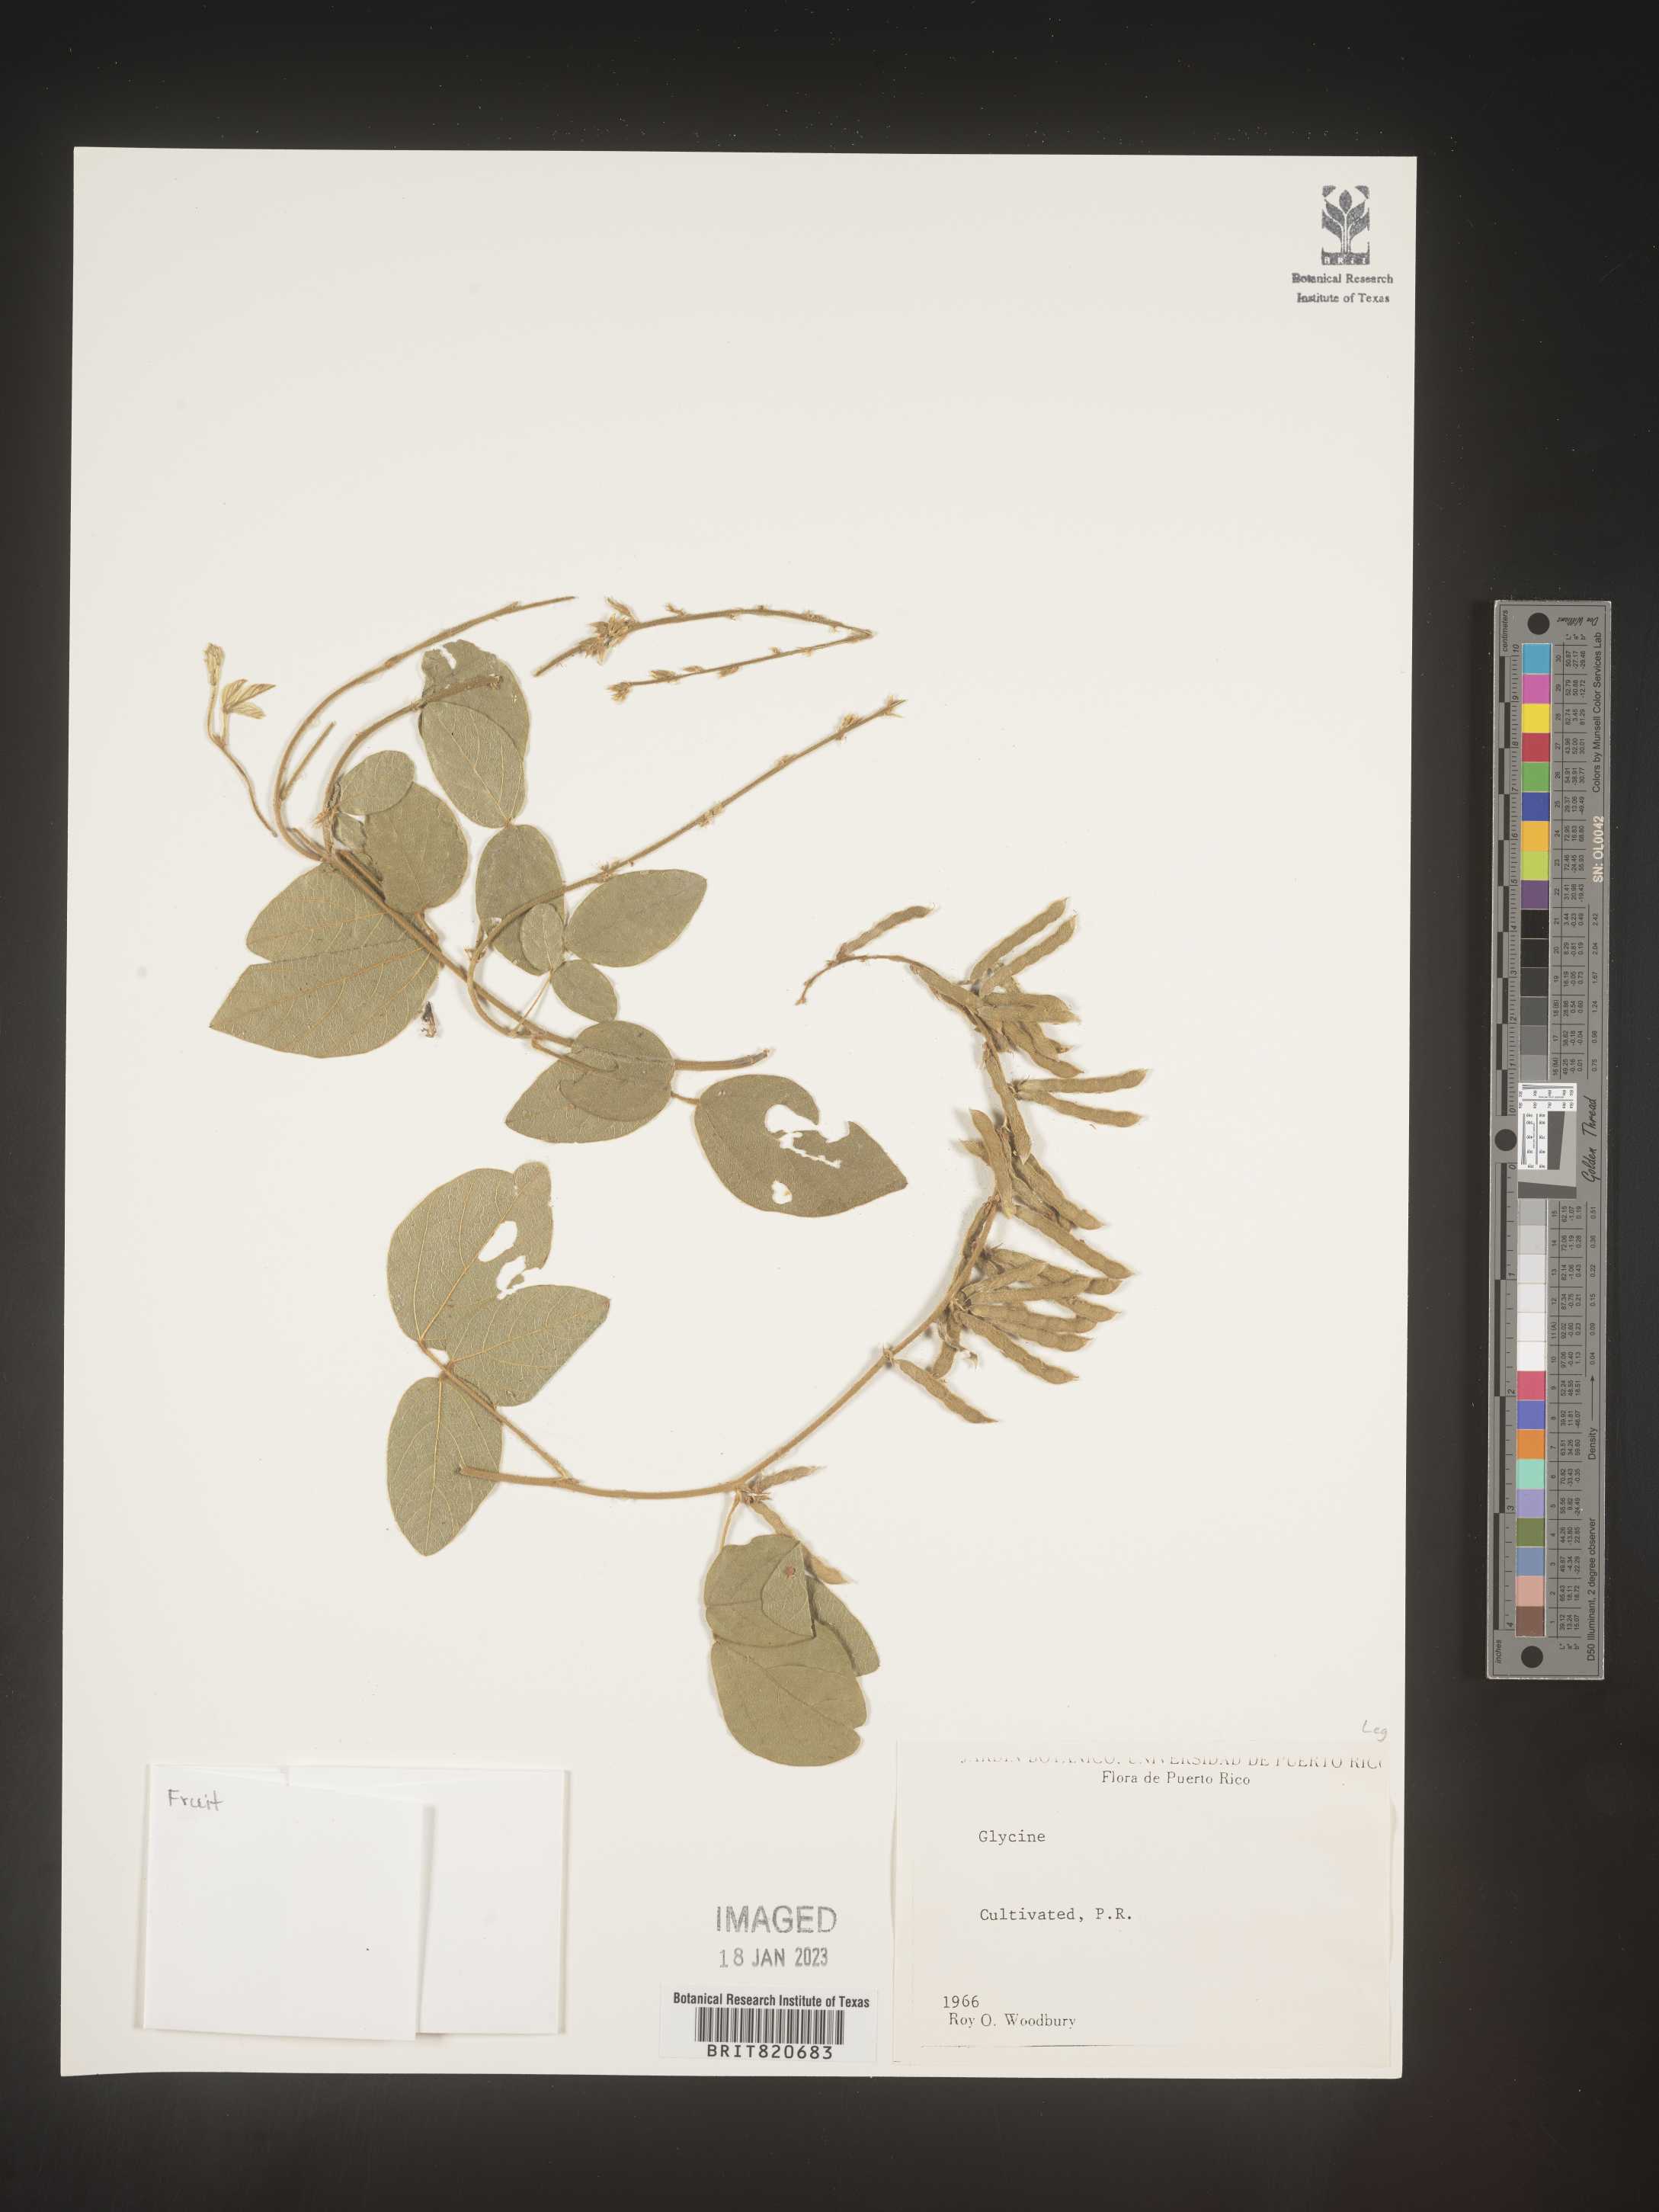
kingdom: Plantae
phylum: Tracheophyta
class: Magnoliopsida
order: Fabales
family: Fabaceae
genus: Glycine
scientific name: Glycine
